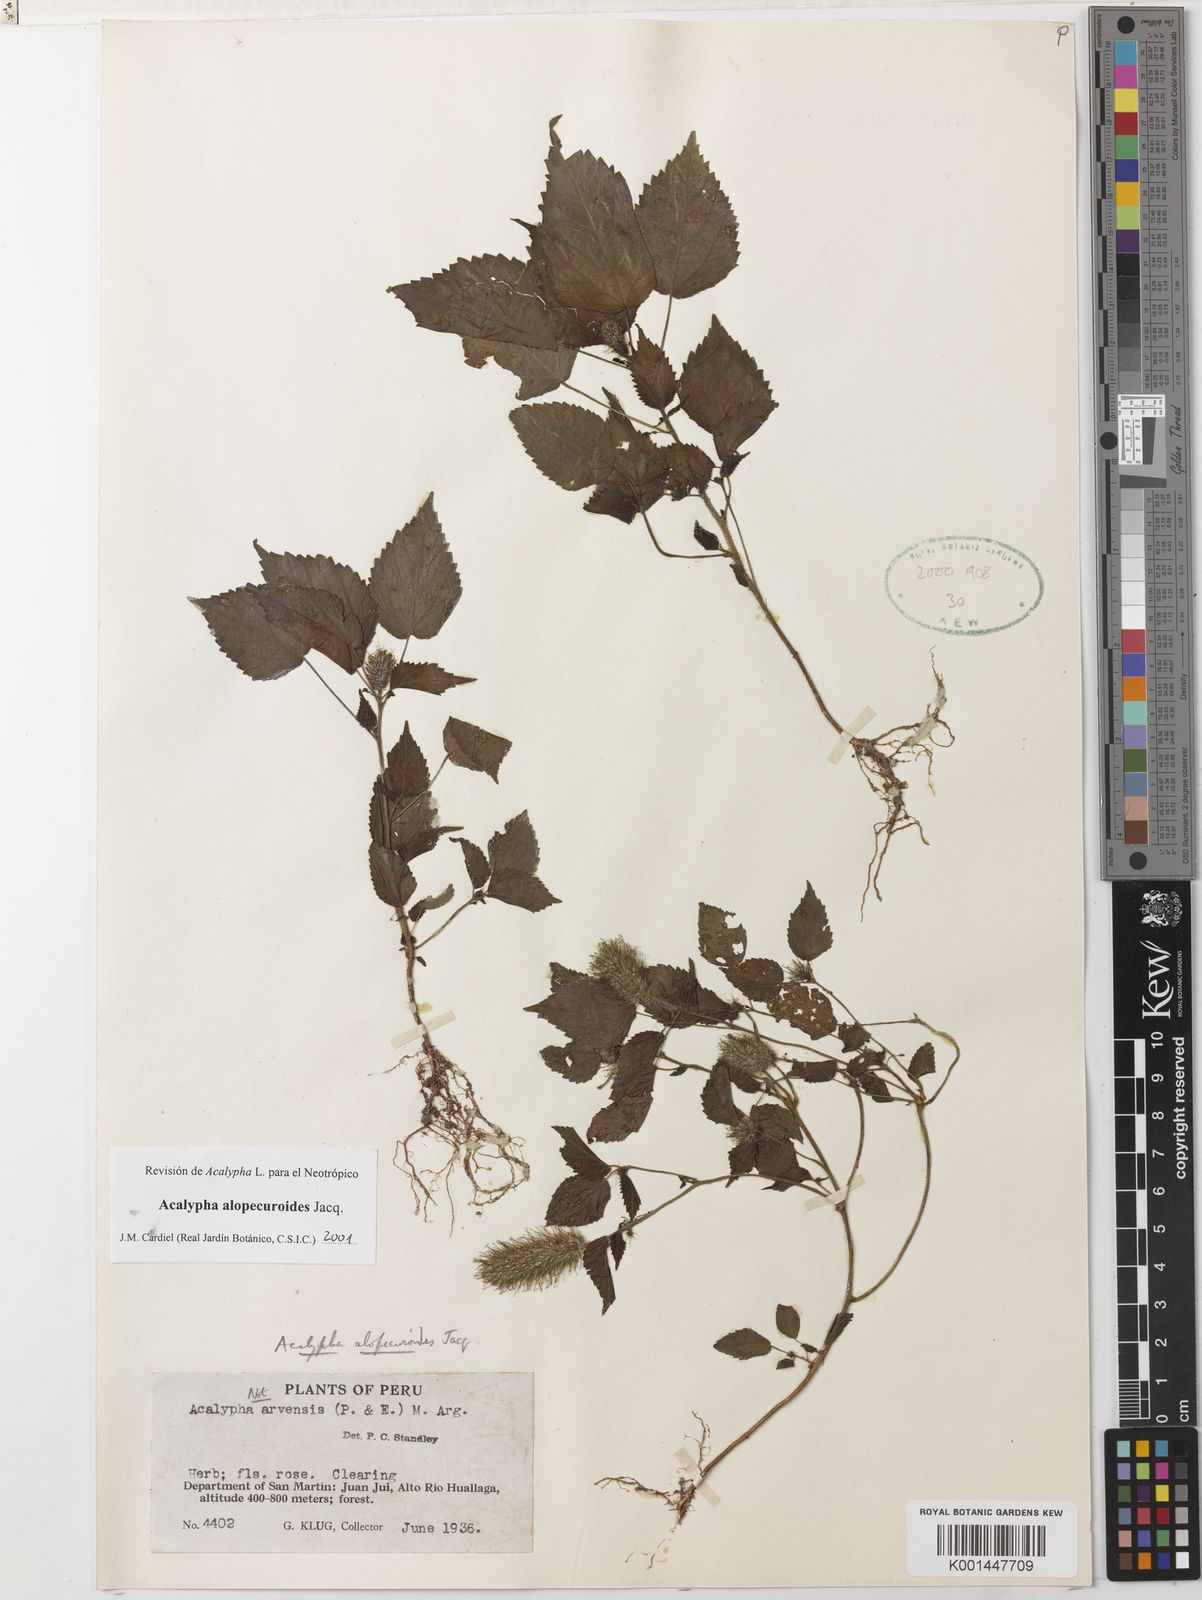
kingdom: Plantae
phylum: Tracheophyta
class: Magnoliopsida
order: Malpighiales
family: Euphorbiaceae
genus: Acalypha
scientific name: Acalypha alopecuroidea
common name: Foxtail copperleaf
